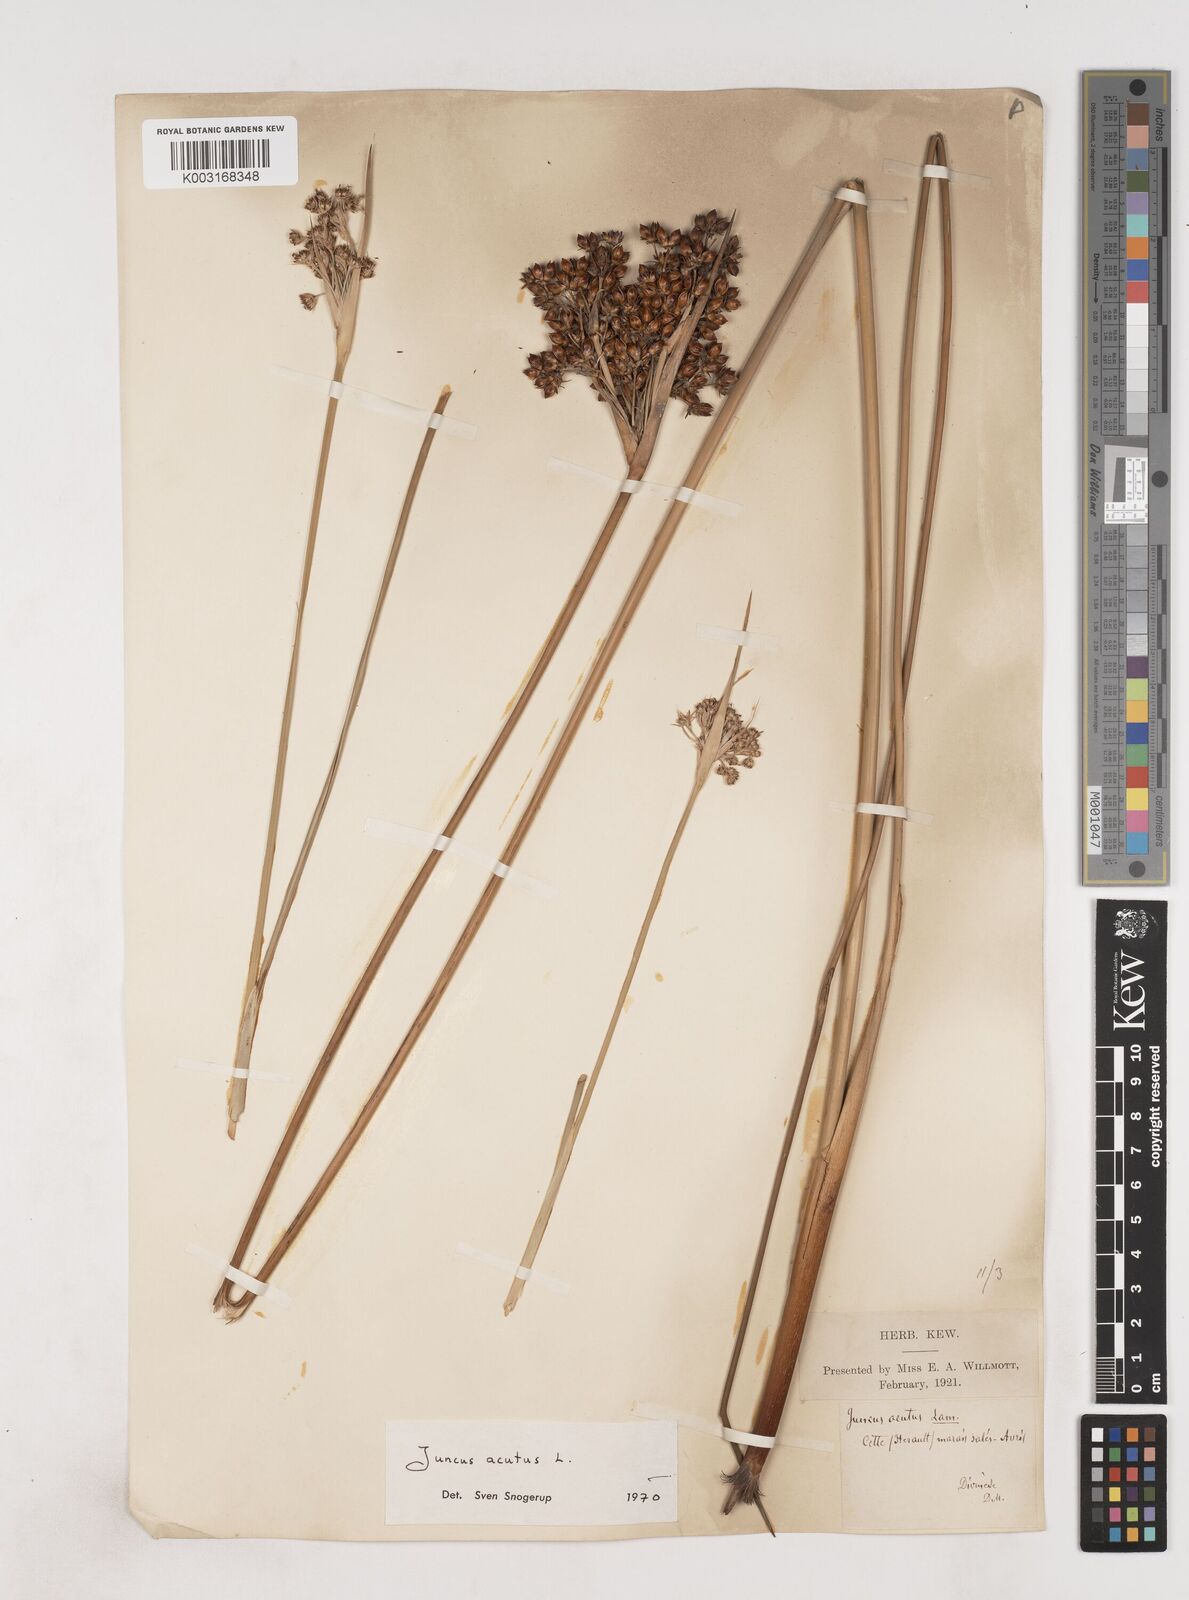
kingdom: Plantae
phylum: Tracheophyta
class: Liliopsida
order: Poales
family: Juncaceae
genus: Juncus
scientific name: Juncus acutus
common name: Sharp rush
